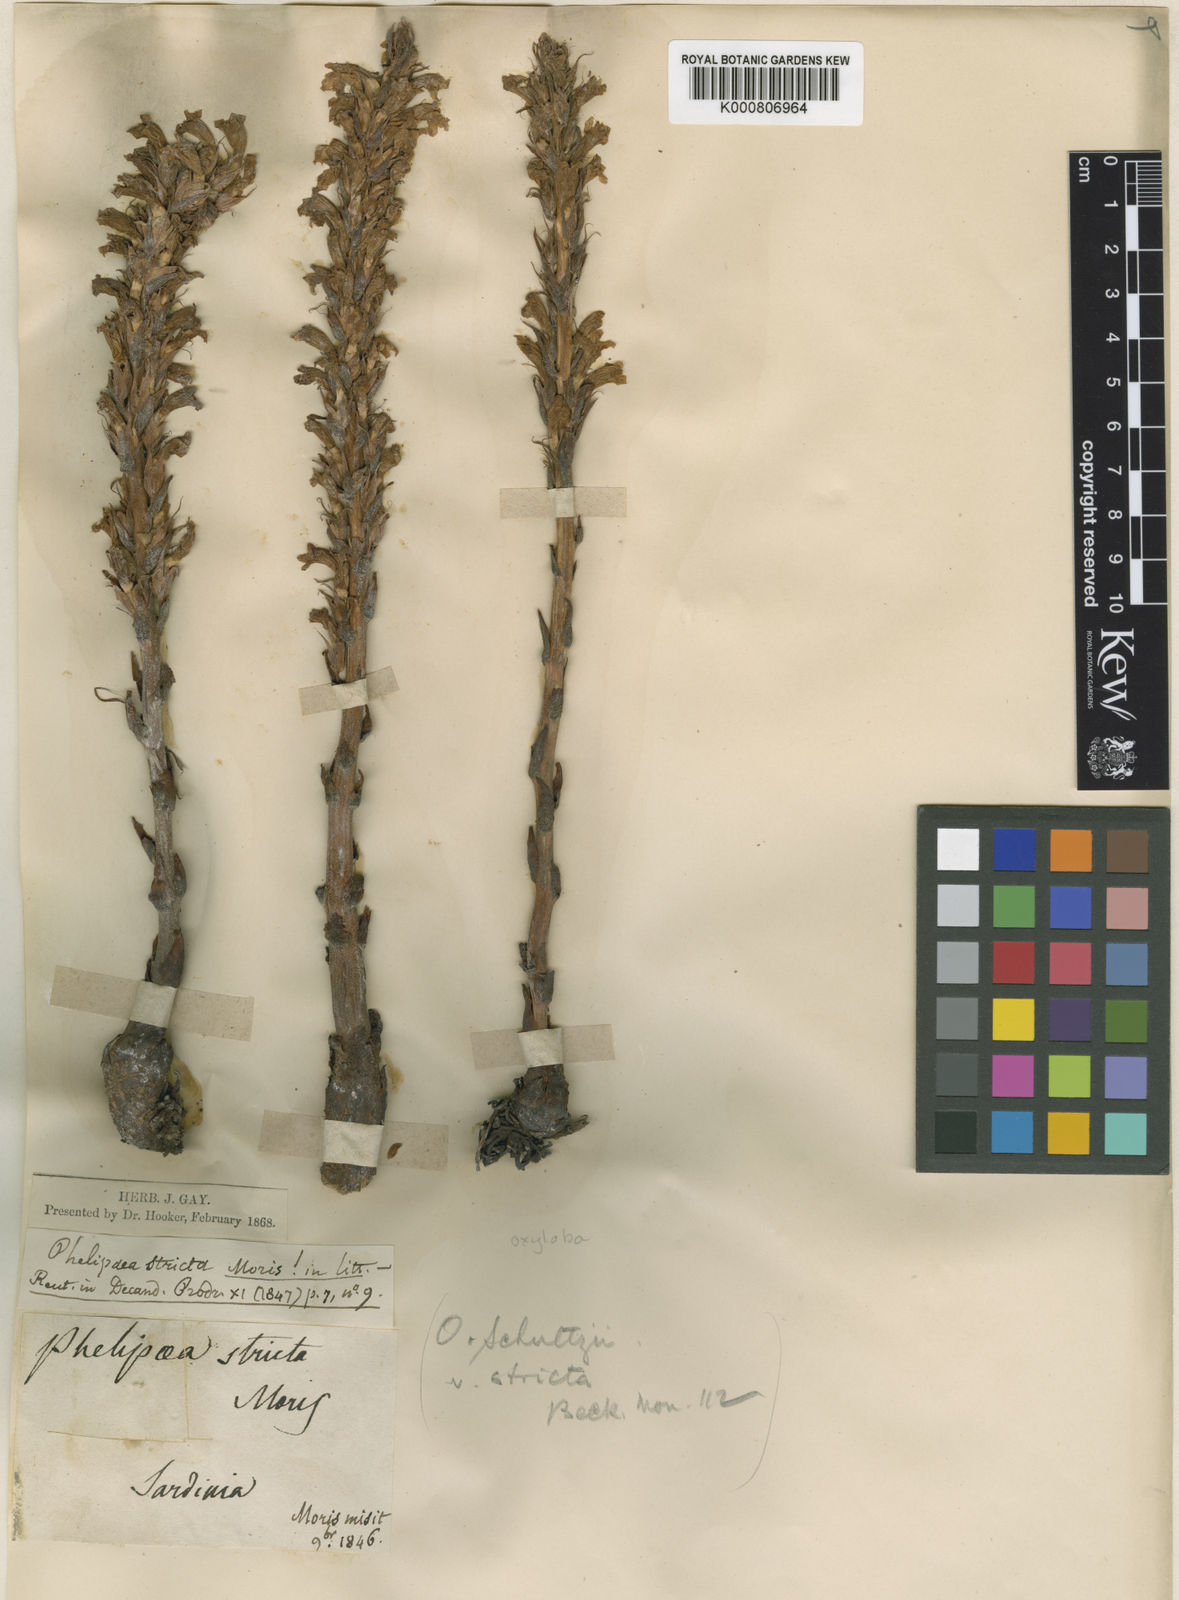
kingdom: Plantae
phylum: Tracheophyta
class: Magnoliopsida
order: Lamiales
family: Orobanchaceae
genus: Phelipanche
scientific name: Phelipanche schultzii
